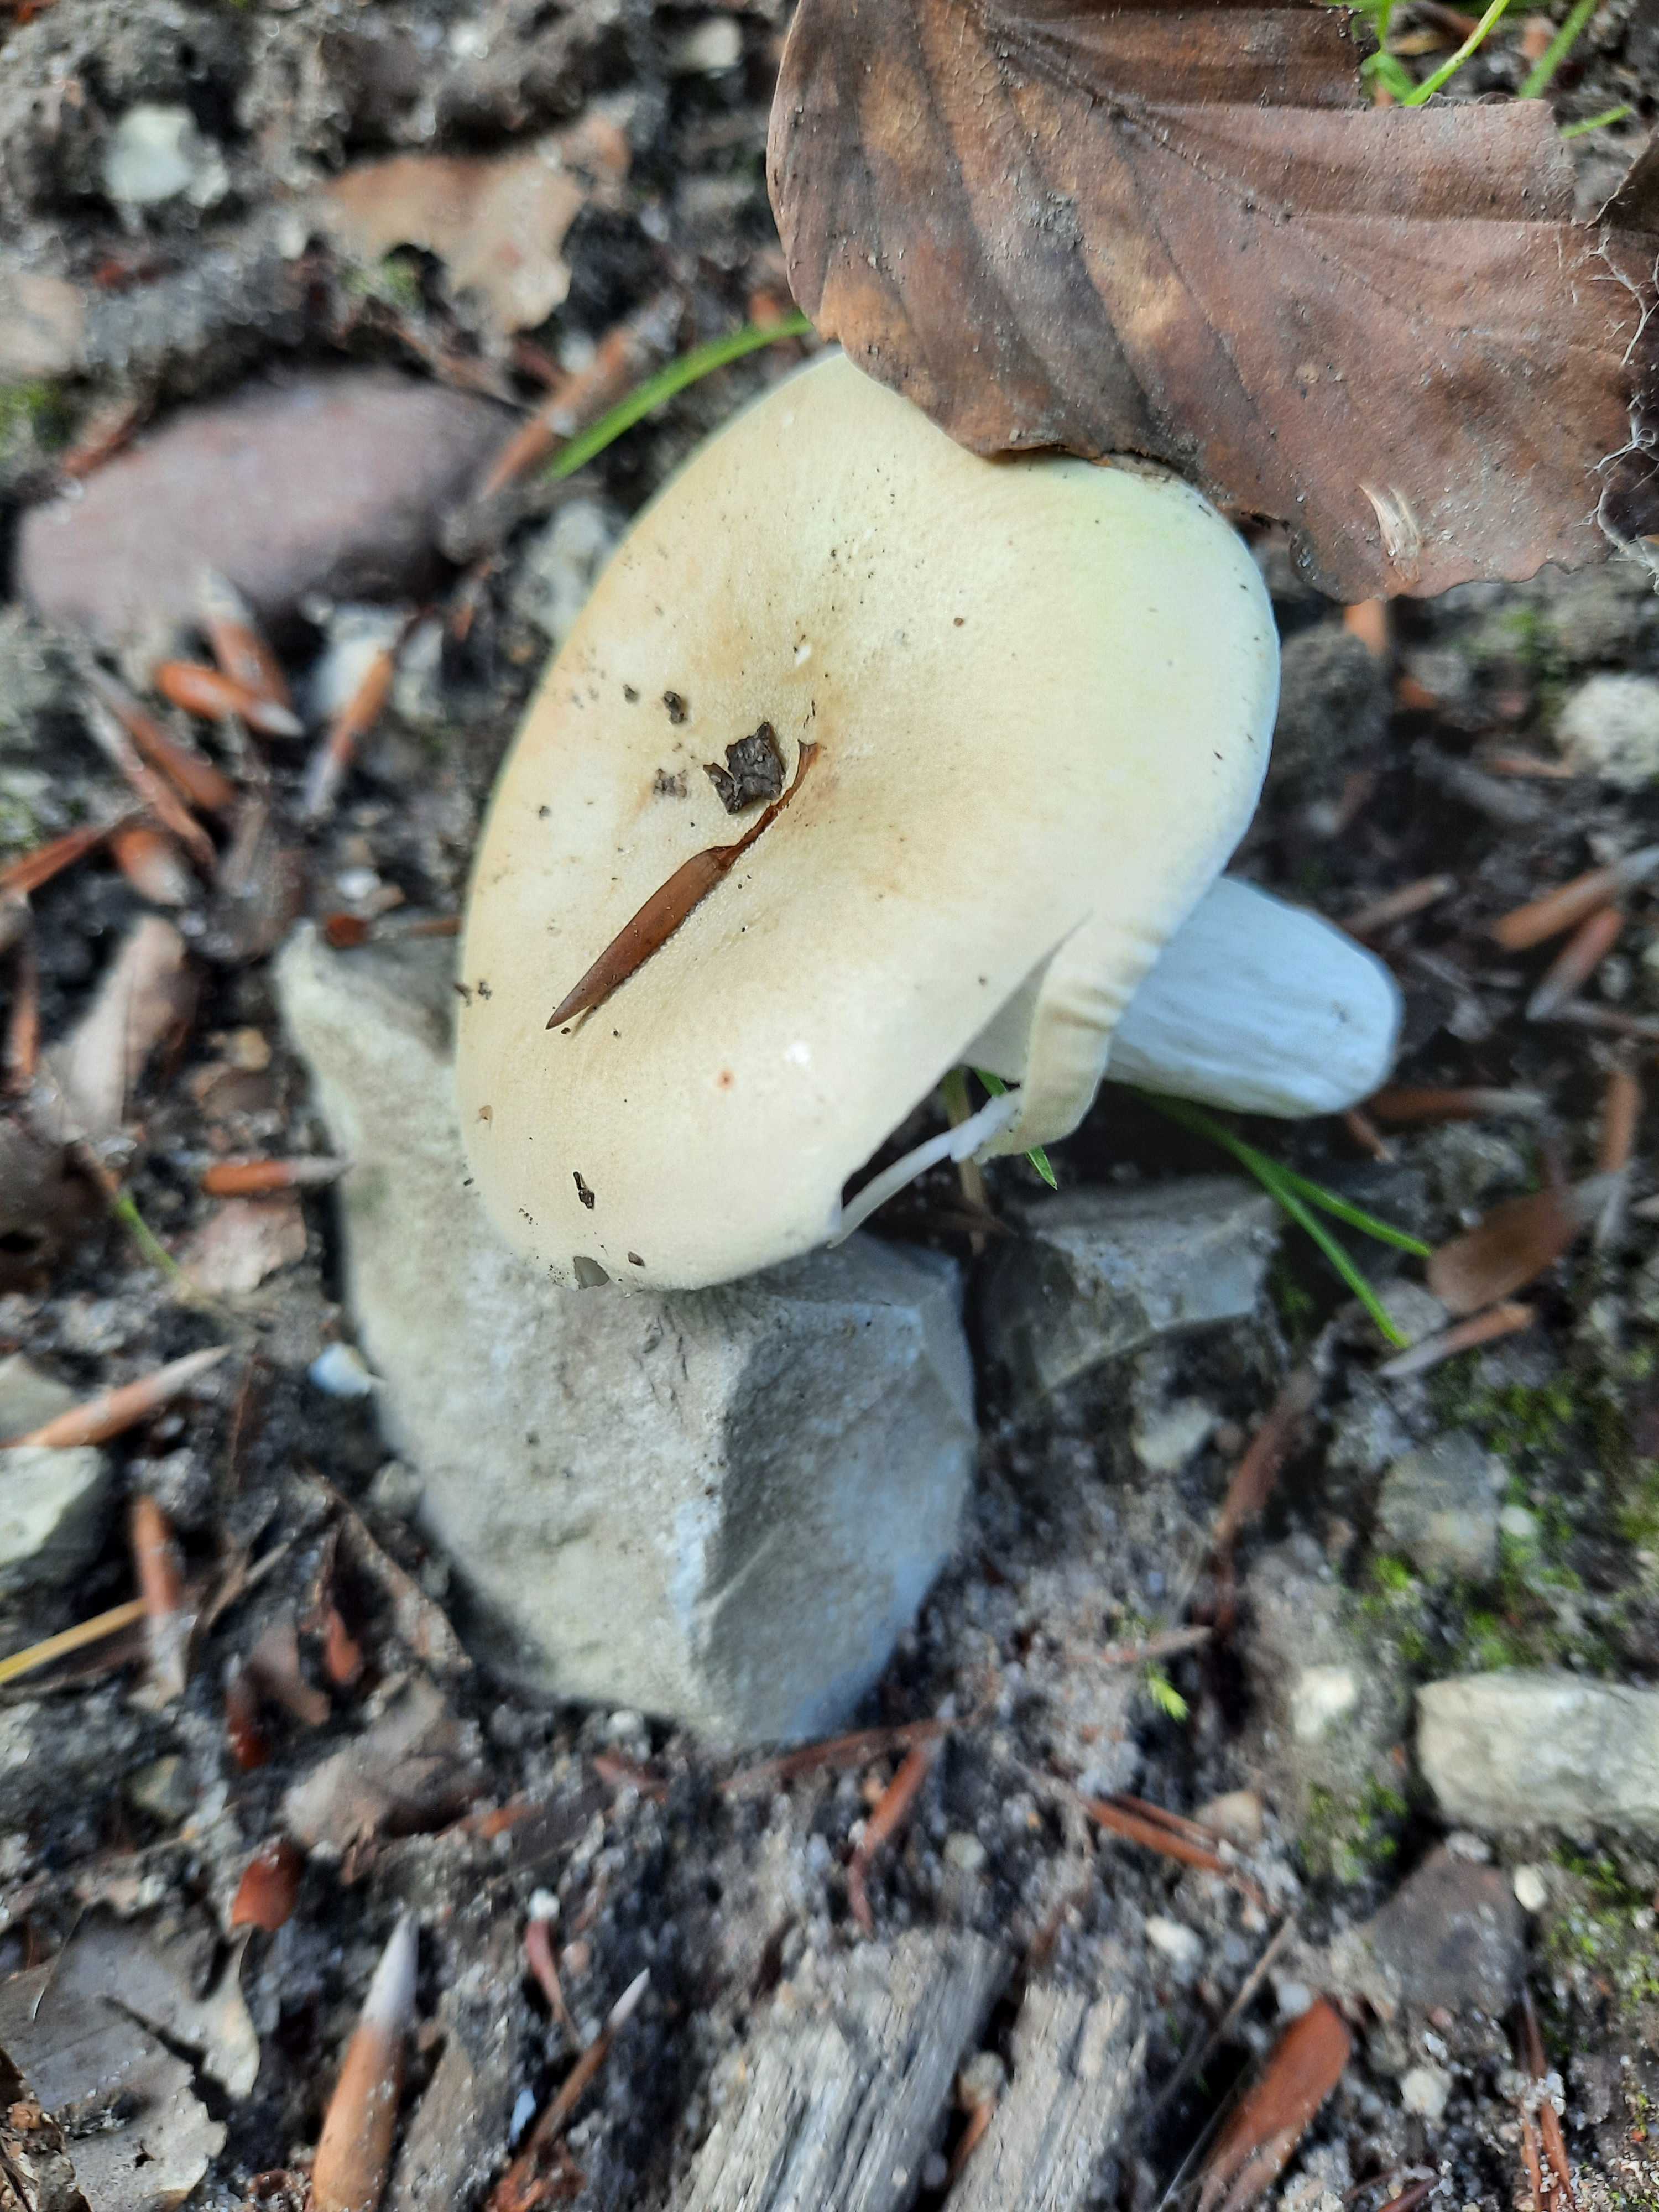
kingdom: Fungi
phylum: Basidiomycota
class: Agaricomycetes
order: Russulales
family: Russulaceae
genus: Russula
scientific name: Russula roseoaurantia
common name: kornet skørhat
